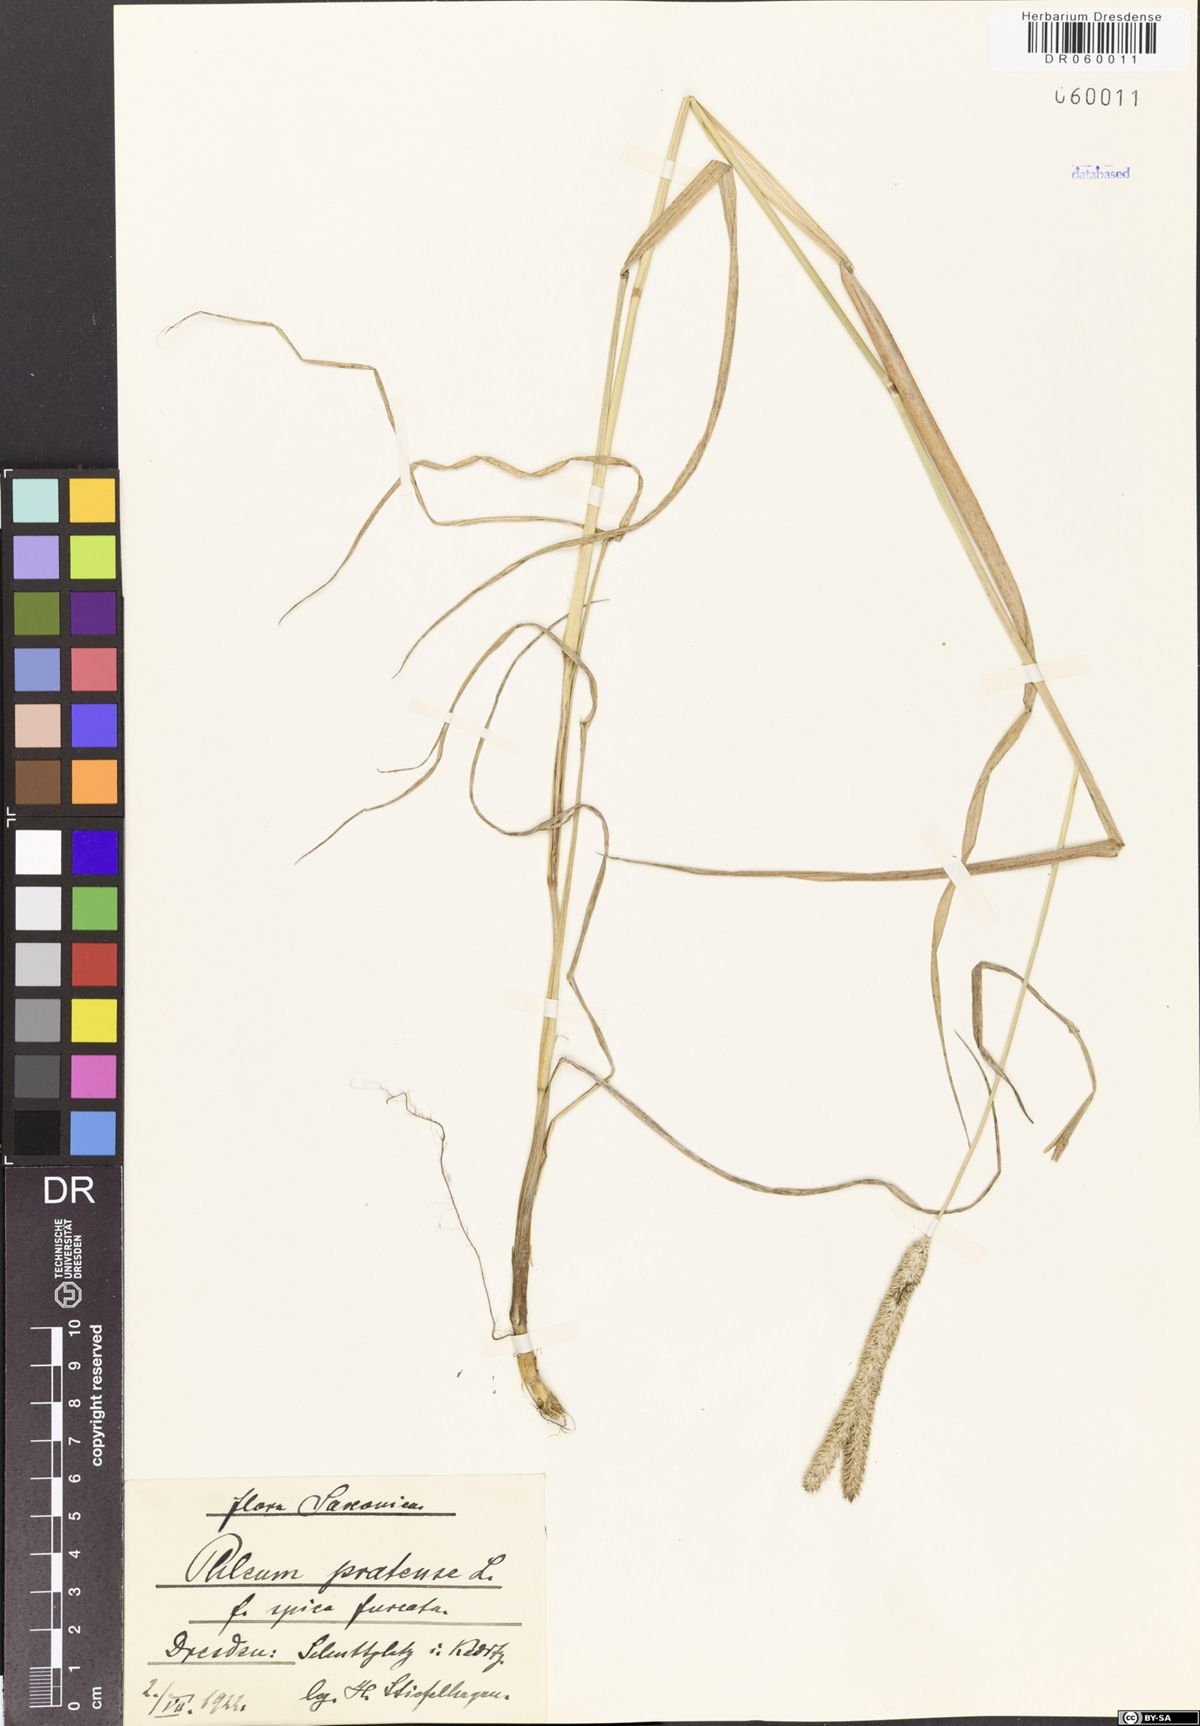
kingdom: Plantae
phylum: Tracheophyta
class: Liliopsida
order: Poales
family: Poaceae
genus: Phleum
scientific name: Phleum pratense
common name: Timothy grass
